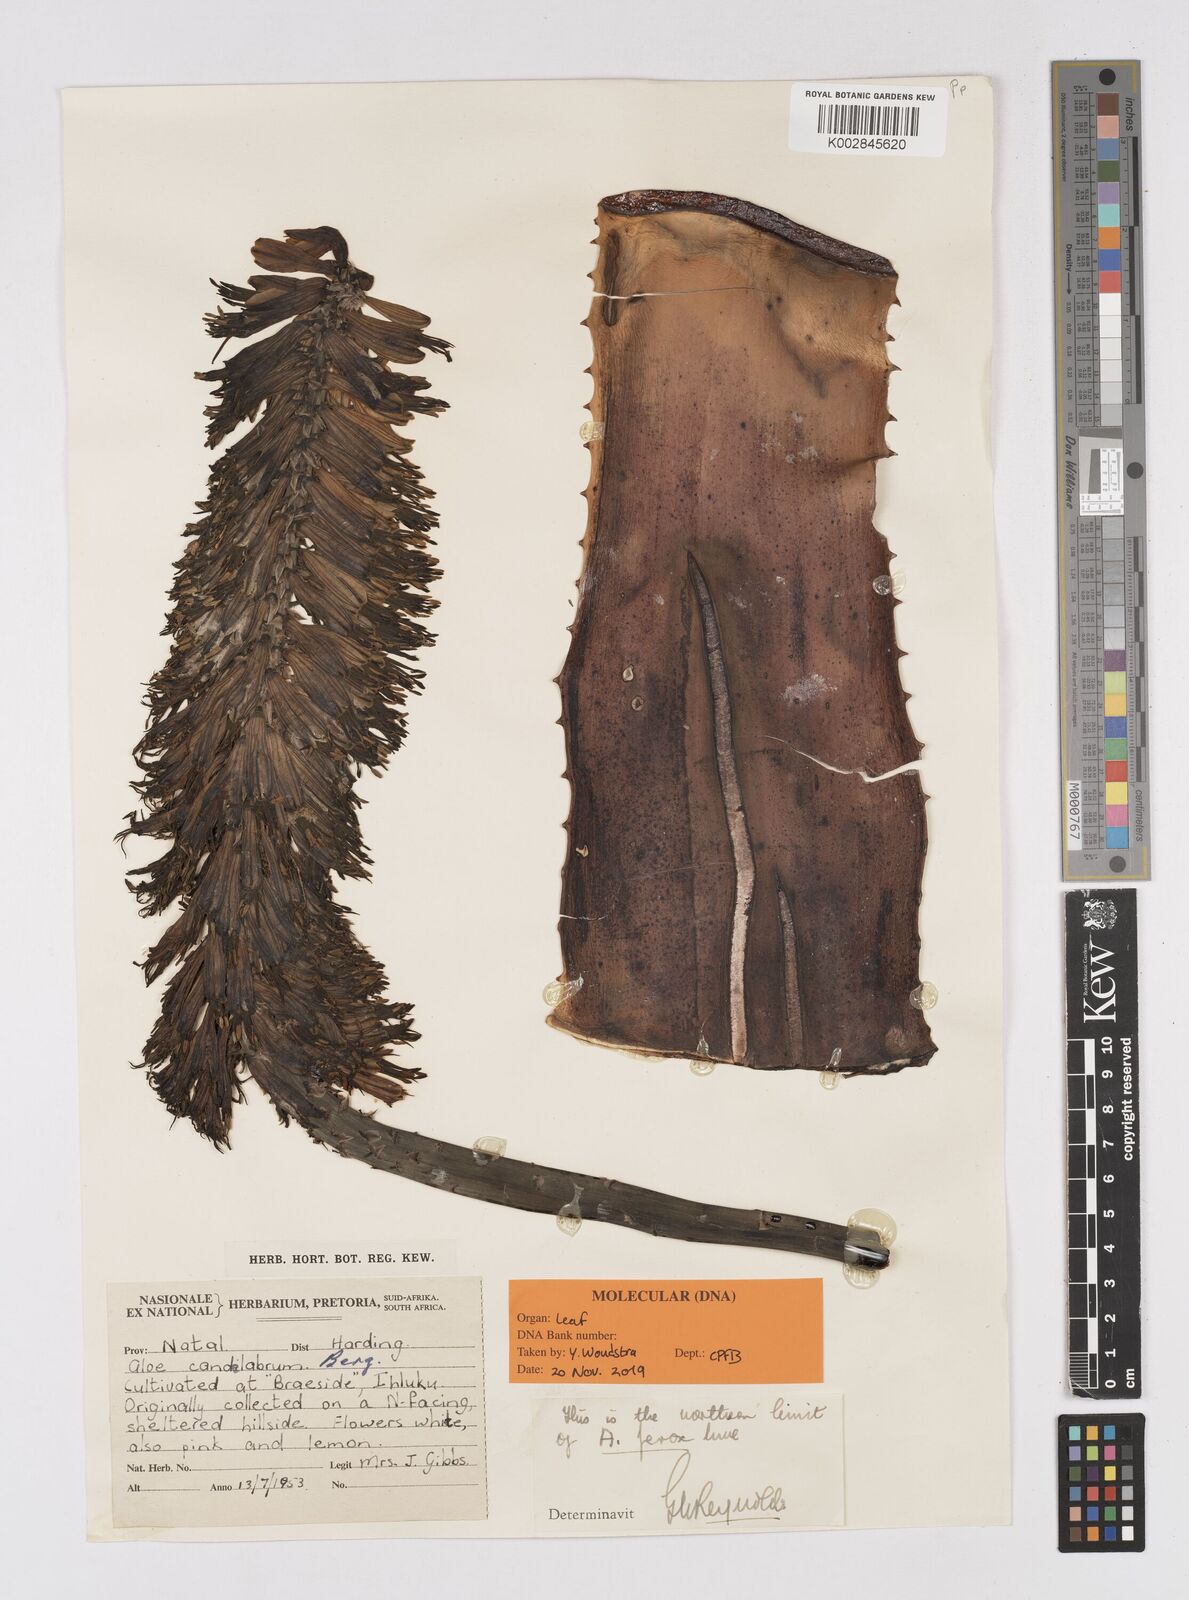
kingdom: Plantae
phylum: Tracheophyta
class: Liliopsida
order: Asparagales
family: Asphodelaceae
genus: Aloe
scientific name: Aloe ferox
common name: Bitter aloe
